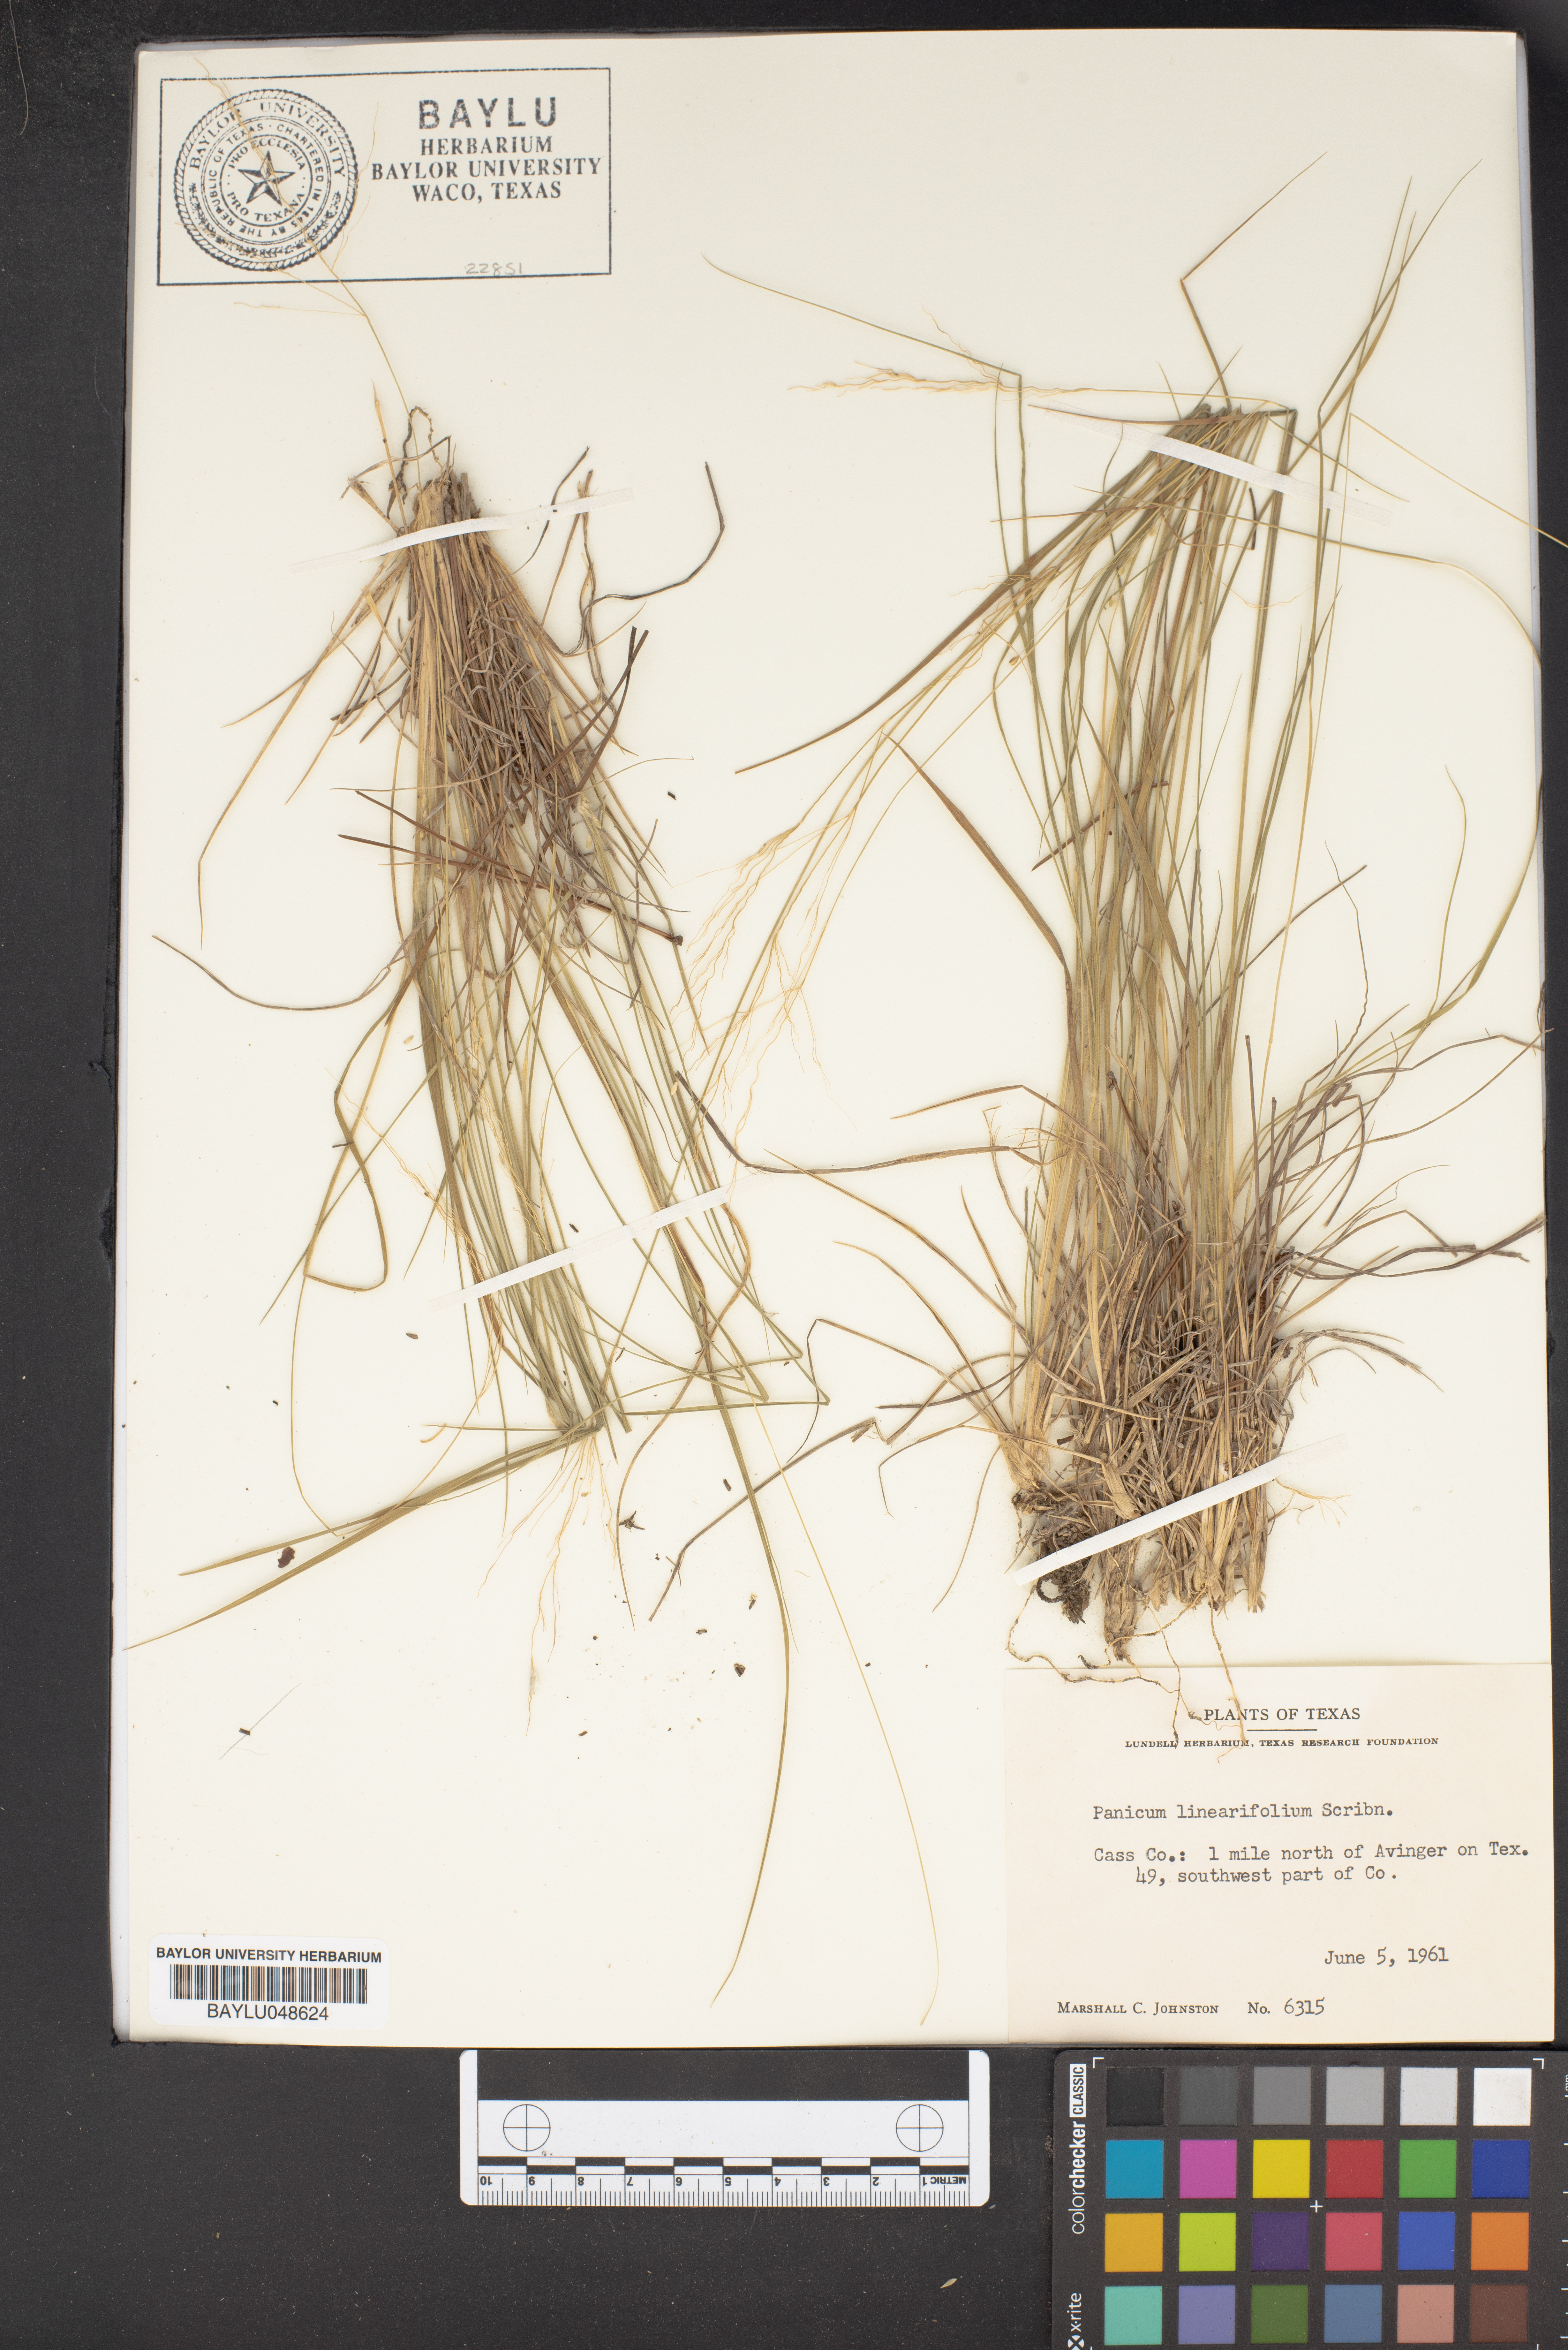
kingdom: Plantae
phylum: Tracheophyta
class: Liliopsida
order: Poales
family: Poaceae
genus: Dichanthelium
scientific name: Dichanthelium linearifolium
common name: Linear-leaved panicgrass
